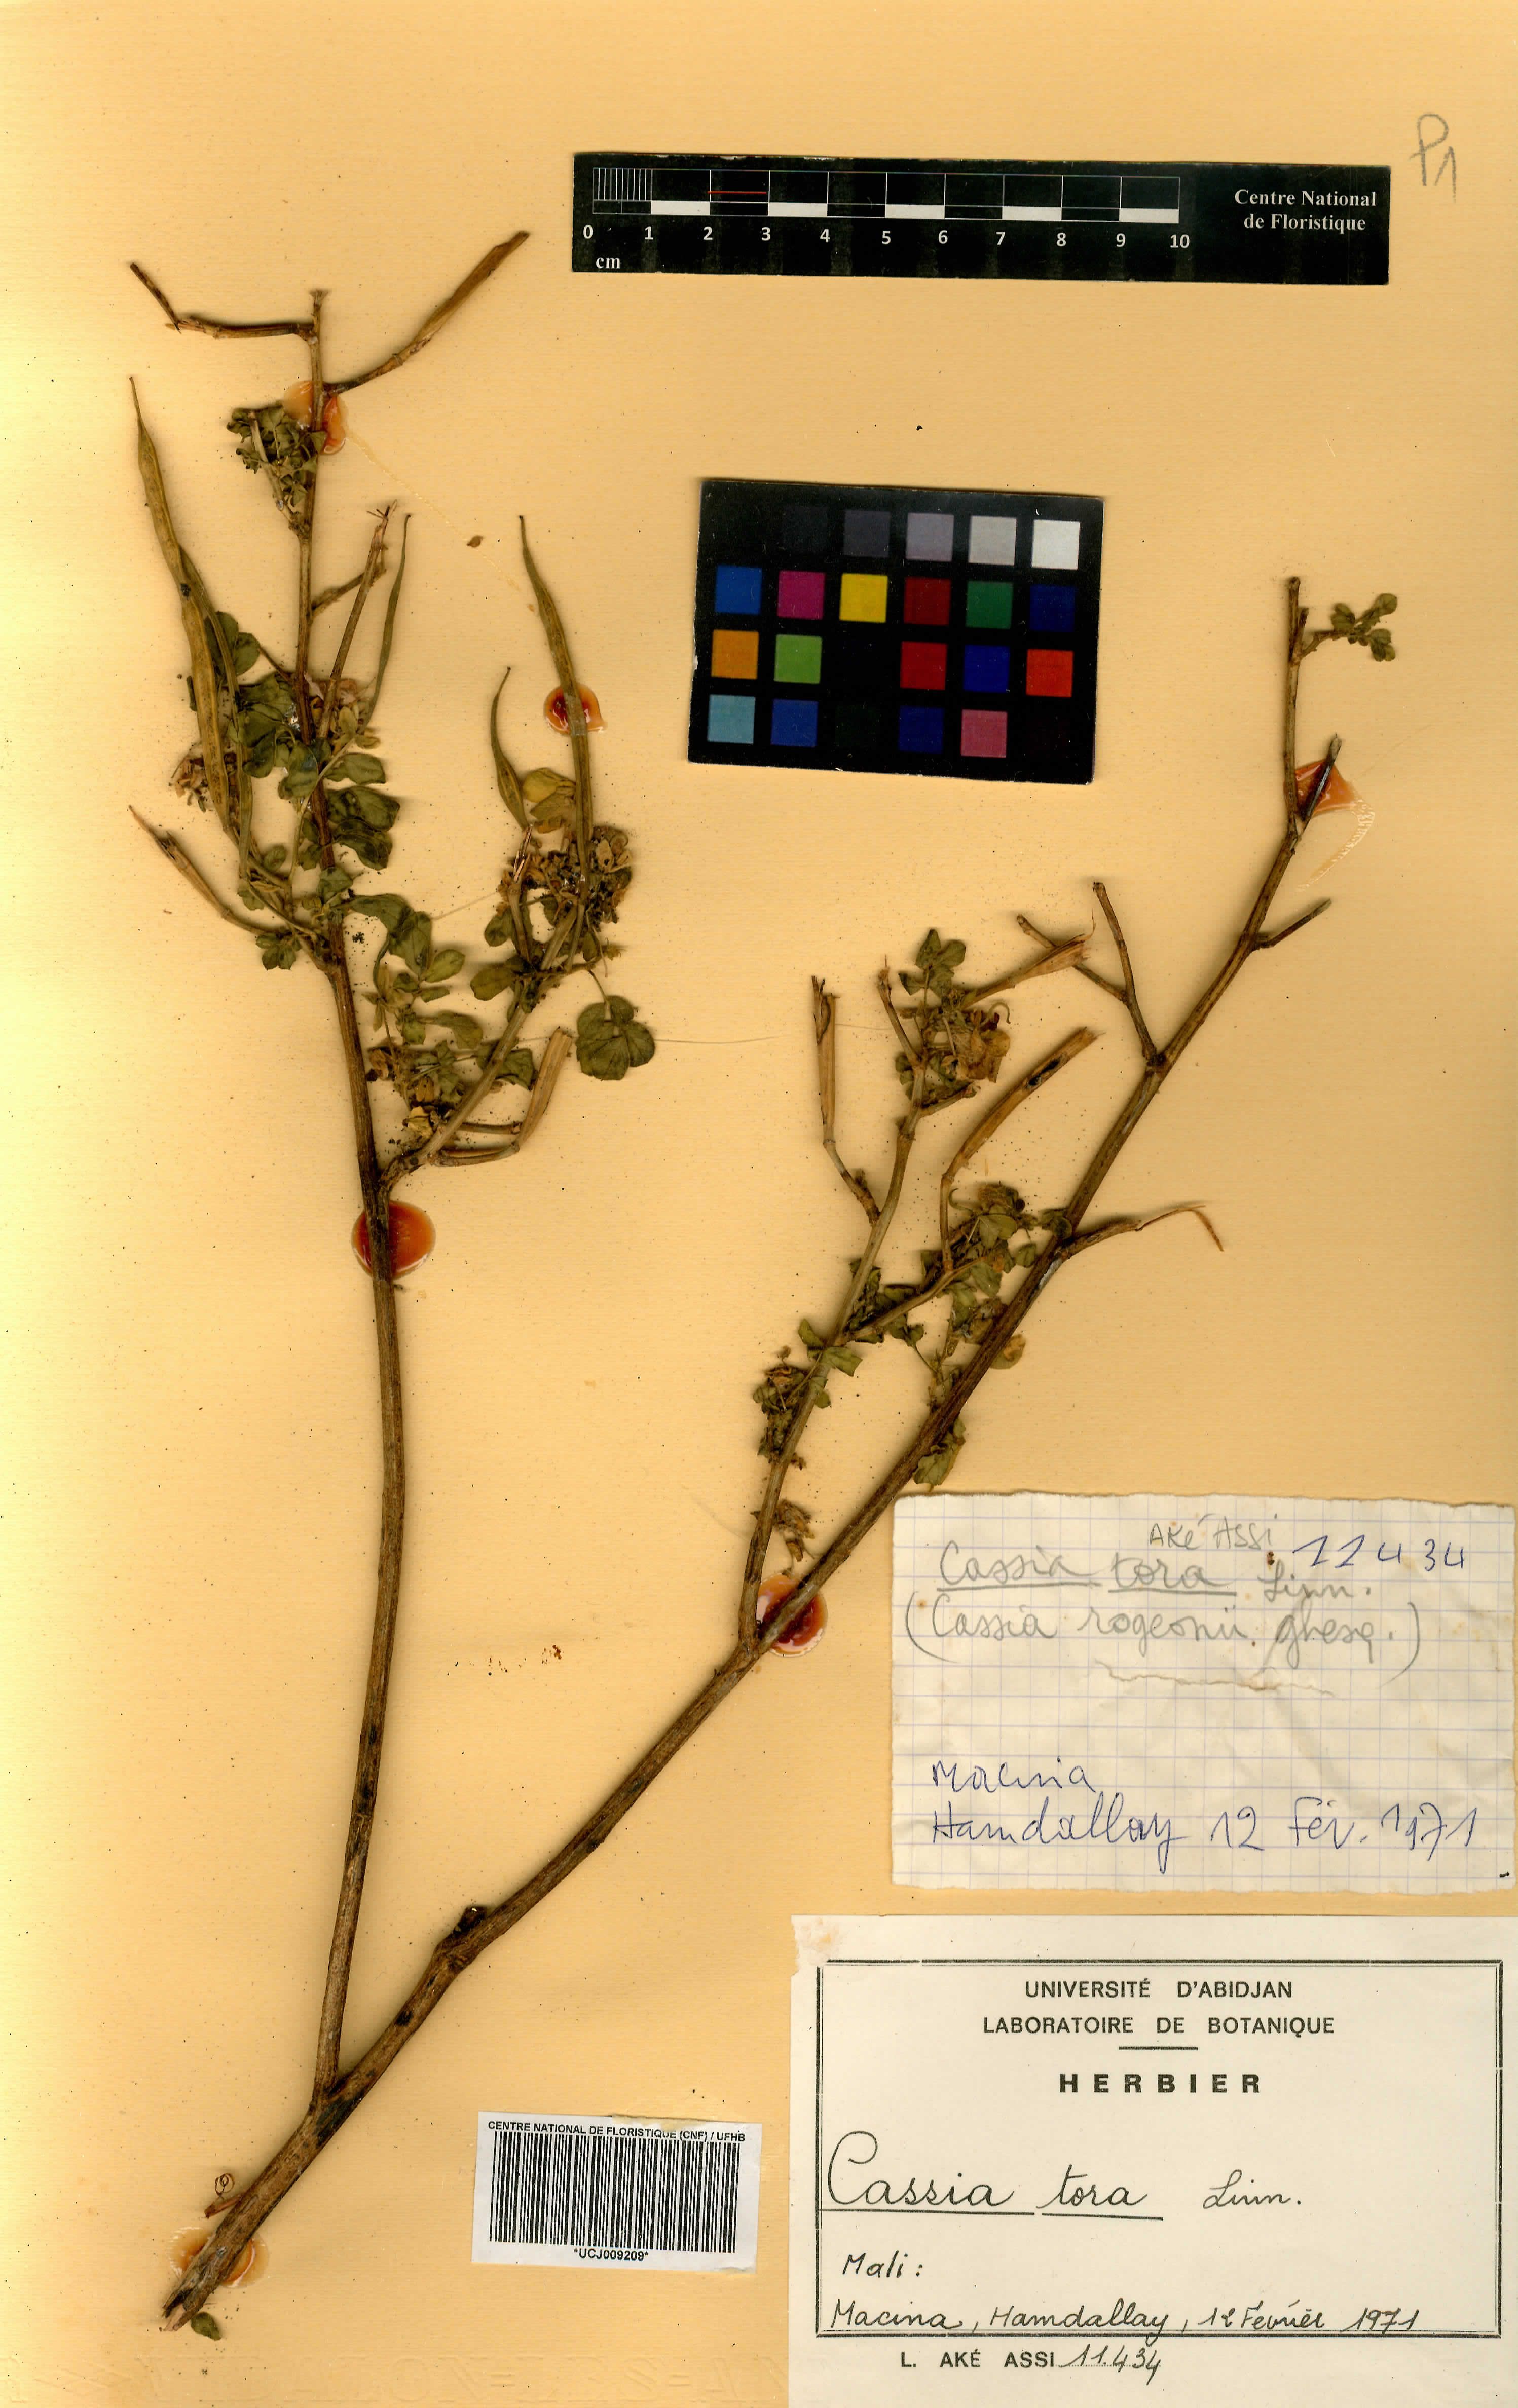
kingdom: Plantae
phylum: Tracheophyta
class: Magnoliopsida
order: Fabales
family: Fabaceae
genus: Senna
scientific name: Senna tora
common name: Sickle senna
